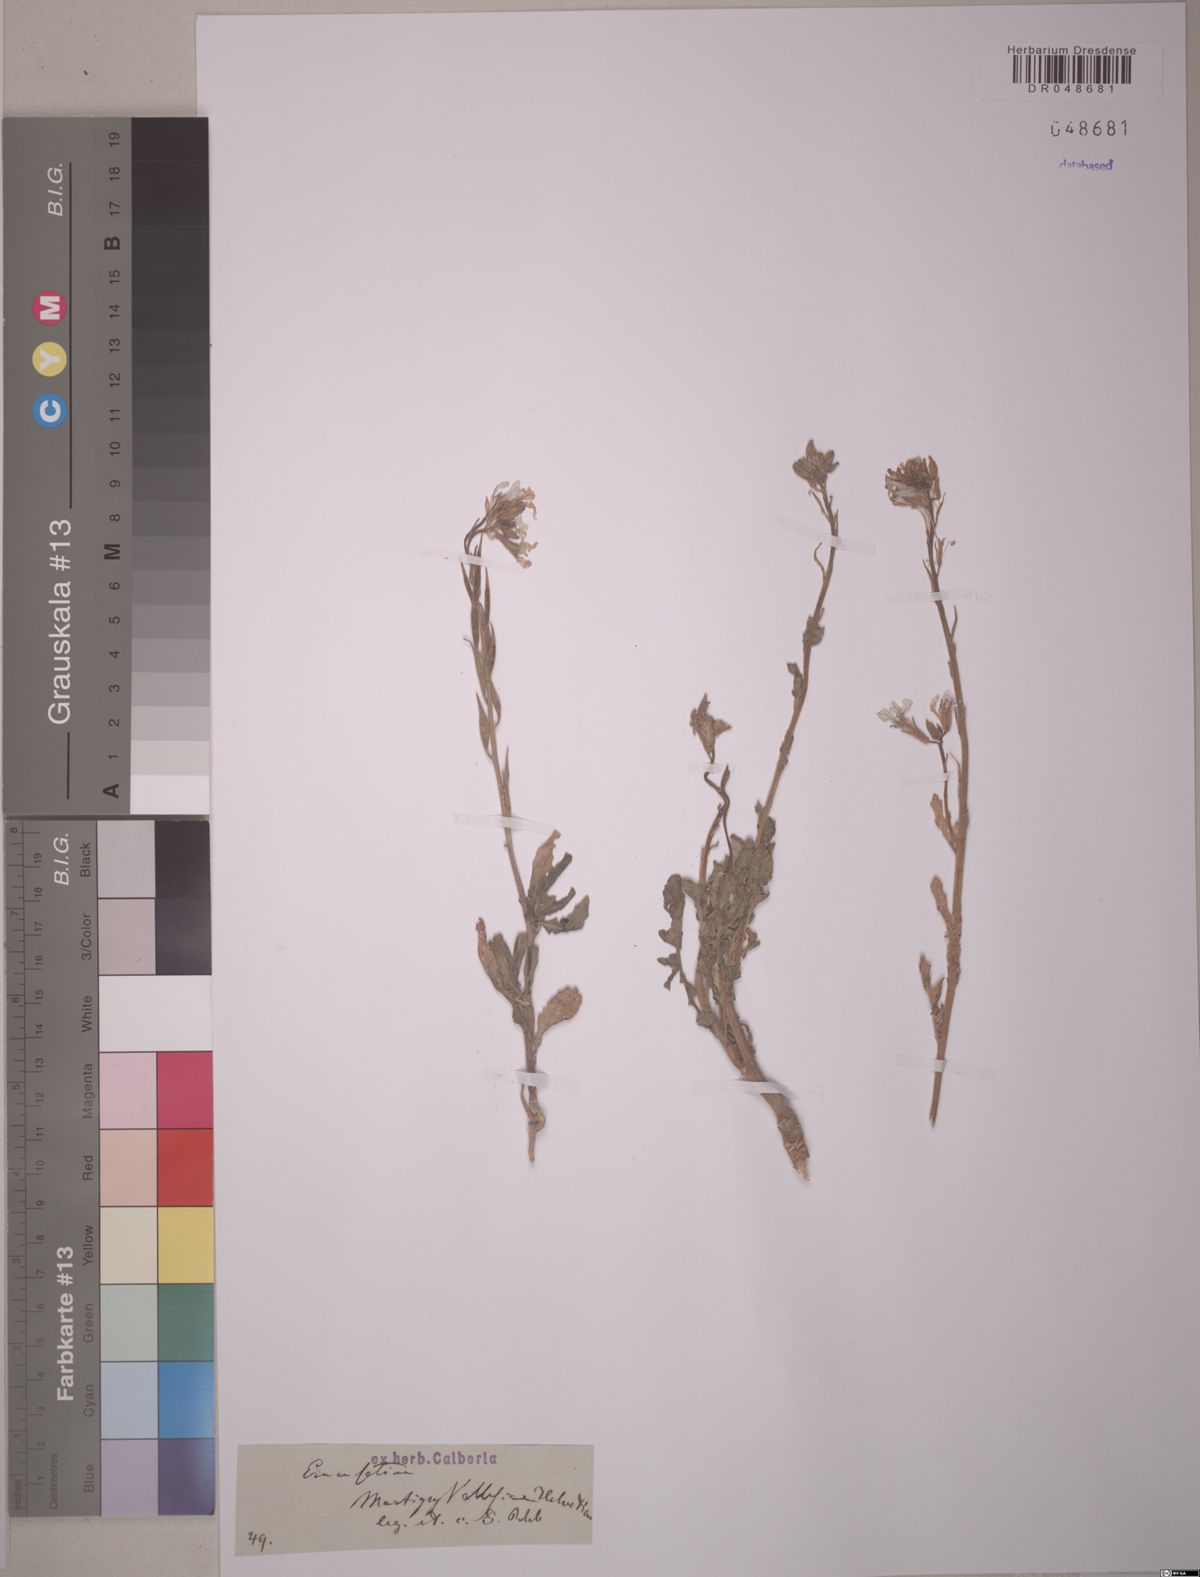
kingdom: Plantae
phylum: Tracheophyta
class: Magnoliopsida
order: Brassicales
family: Brassicaceae
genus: Eruca
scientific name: Eruca vesicaria
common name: Garden rocket
